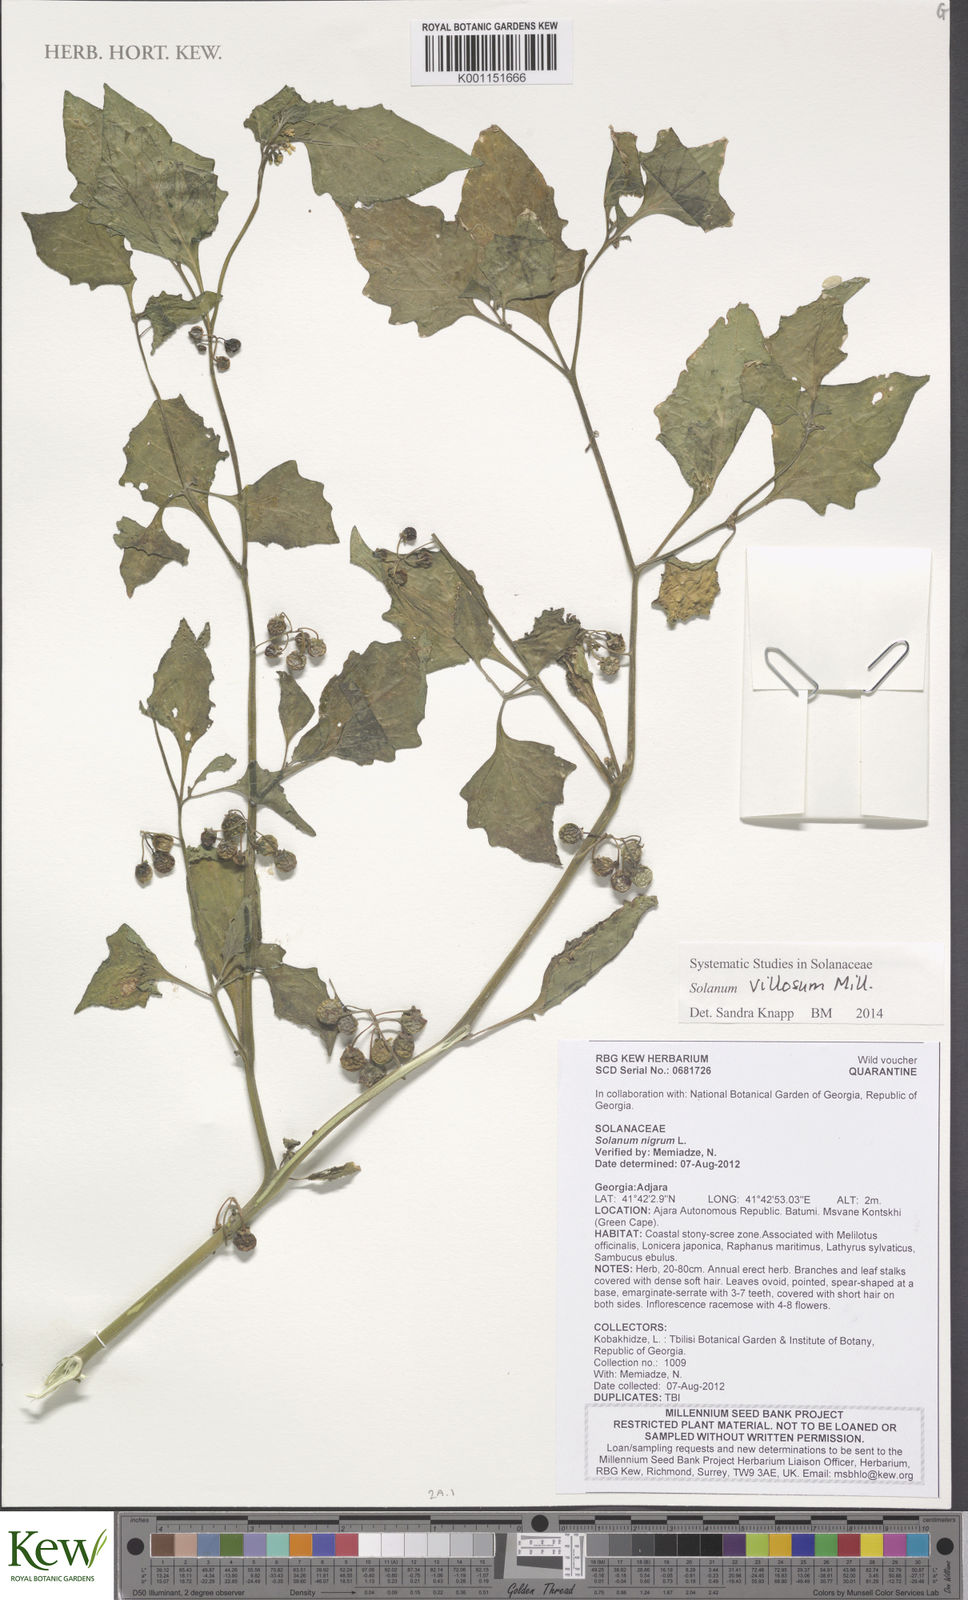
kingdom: Plantae
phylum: Tracheophyta
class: Magnoliopsida
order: Solanales
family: Solanaceae
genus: Solanum
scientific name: Solanum nigrum
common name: Black nightshade
